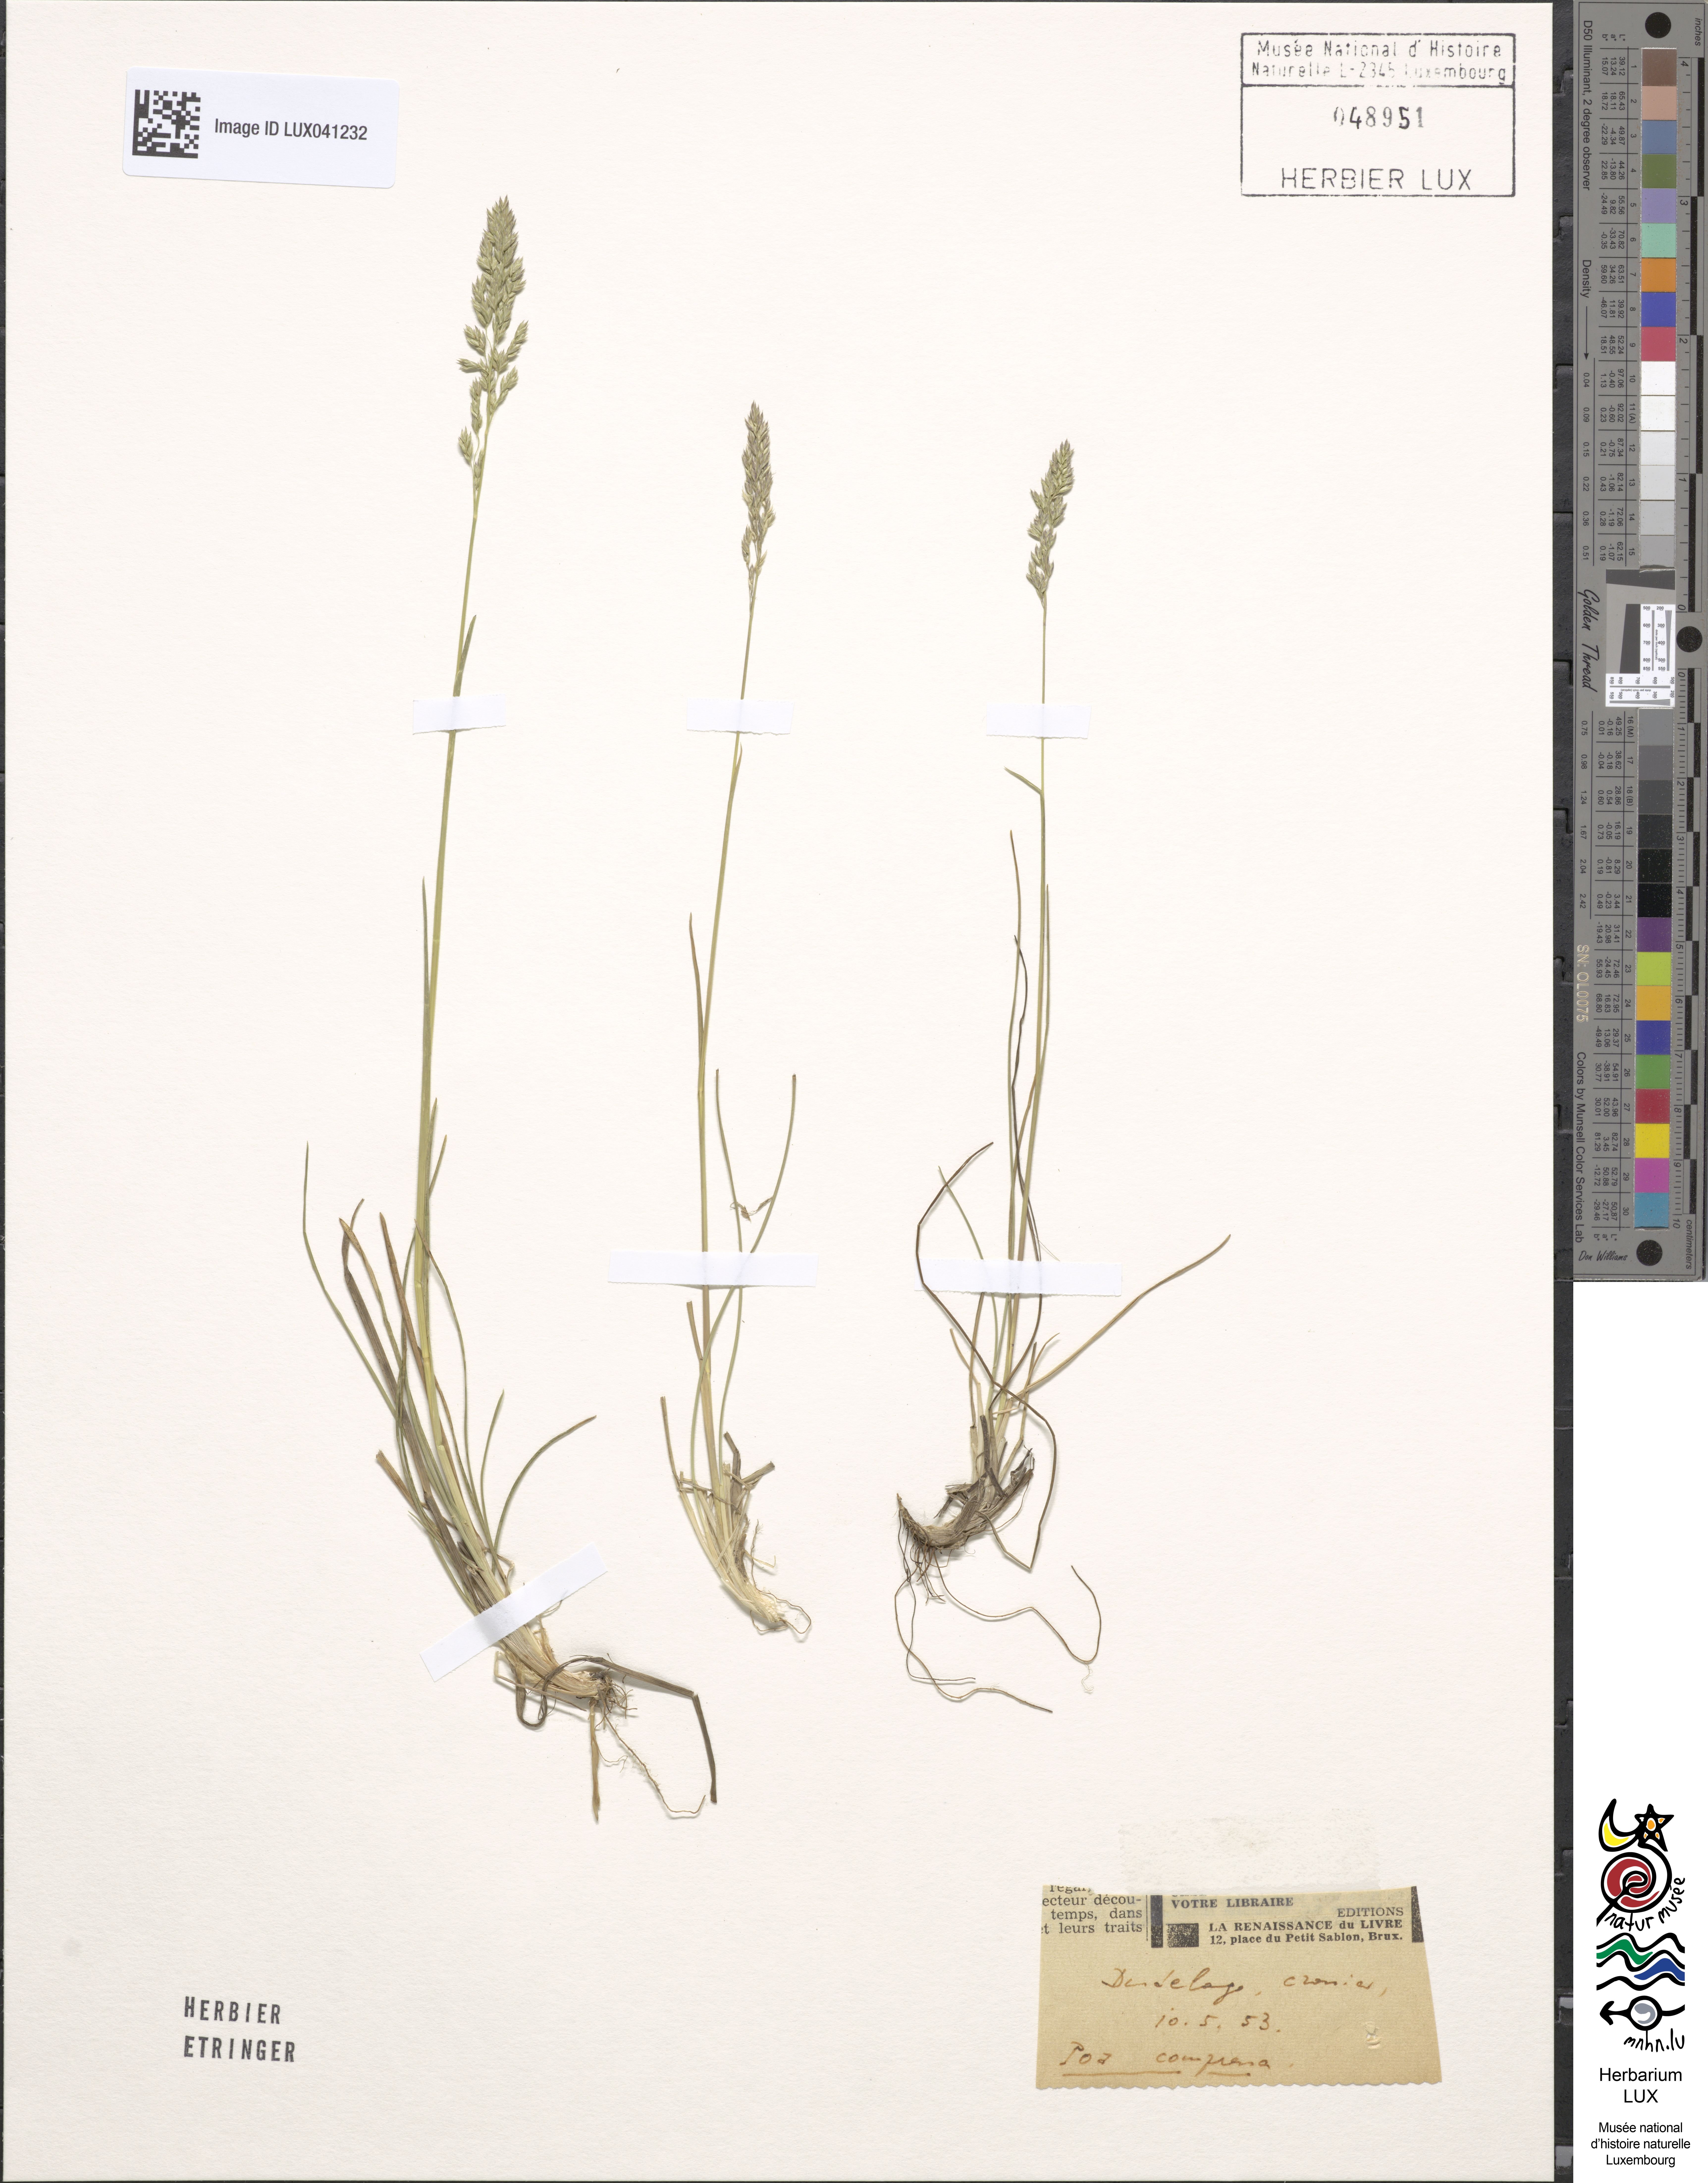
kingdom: Plantae
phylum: Tracheophyta
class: Liliopsida
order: Poales
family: Poaceae
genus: Poa
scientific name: Poa compressa
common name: Canada bluegrass
